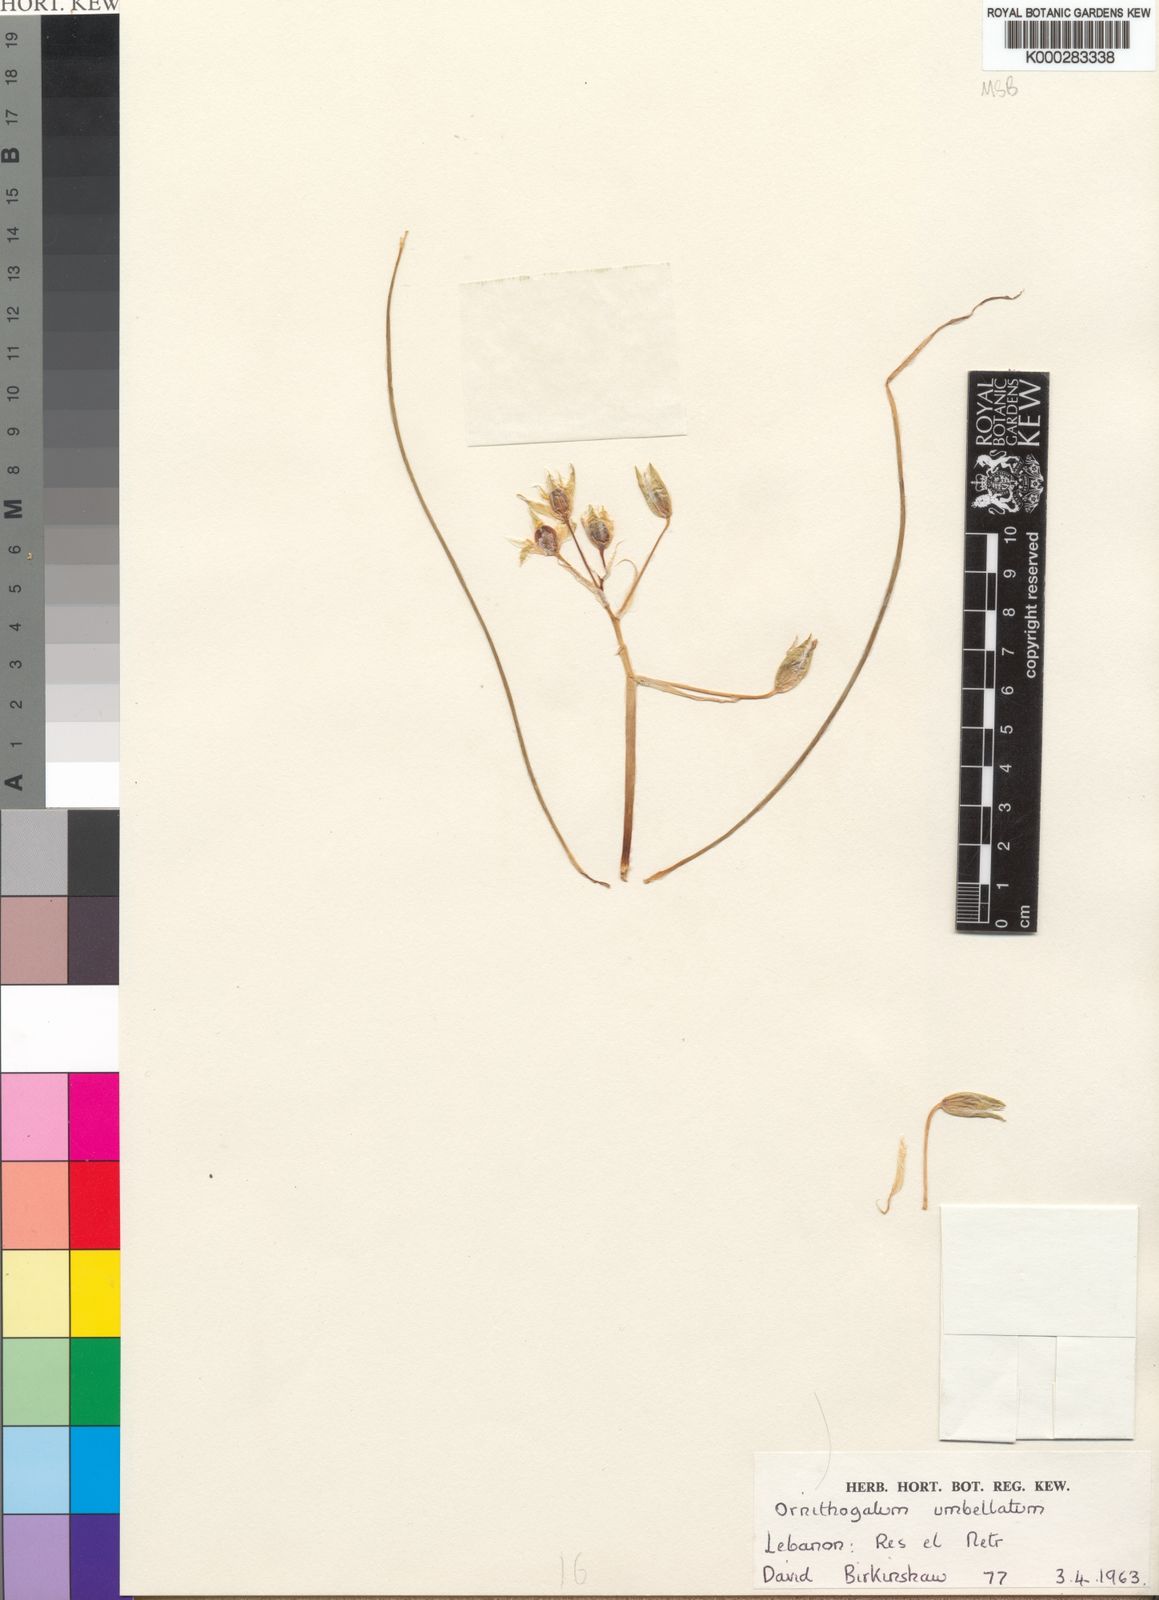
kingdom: Plantae
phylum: Tracheophyta
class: Liliopsida
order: Asparagales
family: Asparagaceae
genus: Ornithogalum
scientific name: Ornithogalum umbellatum
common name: Garden star-of-bethlehem
